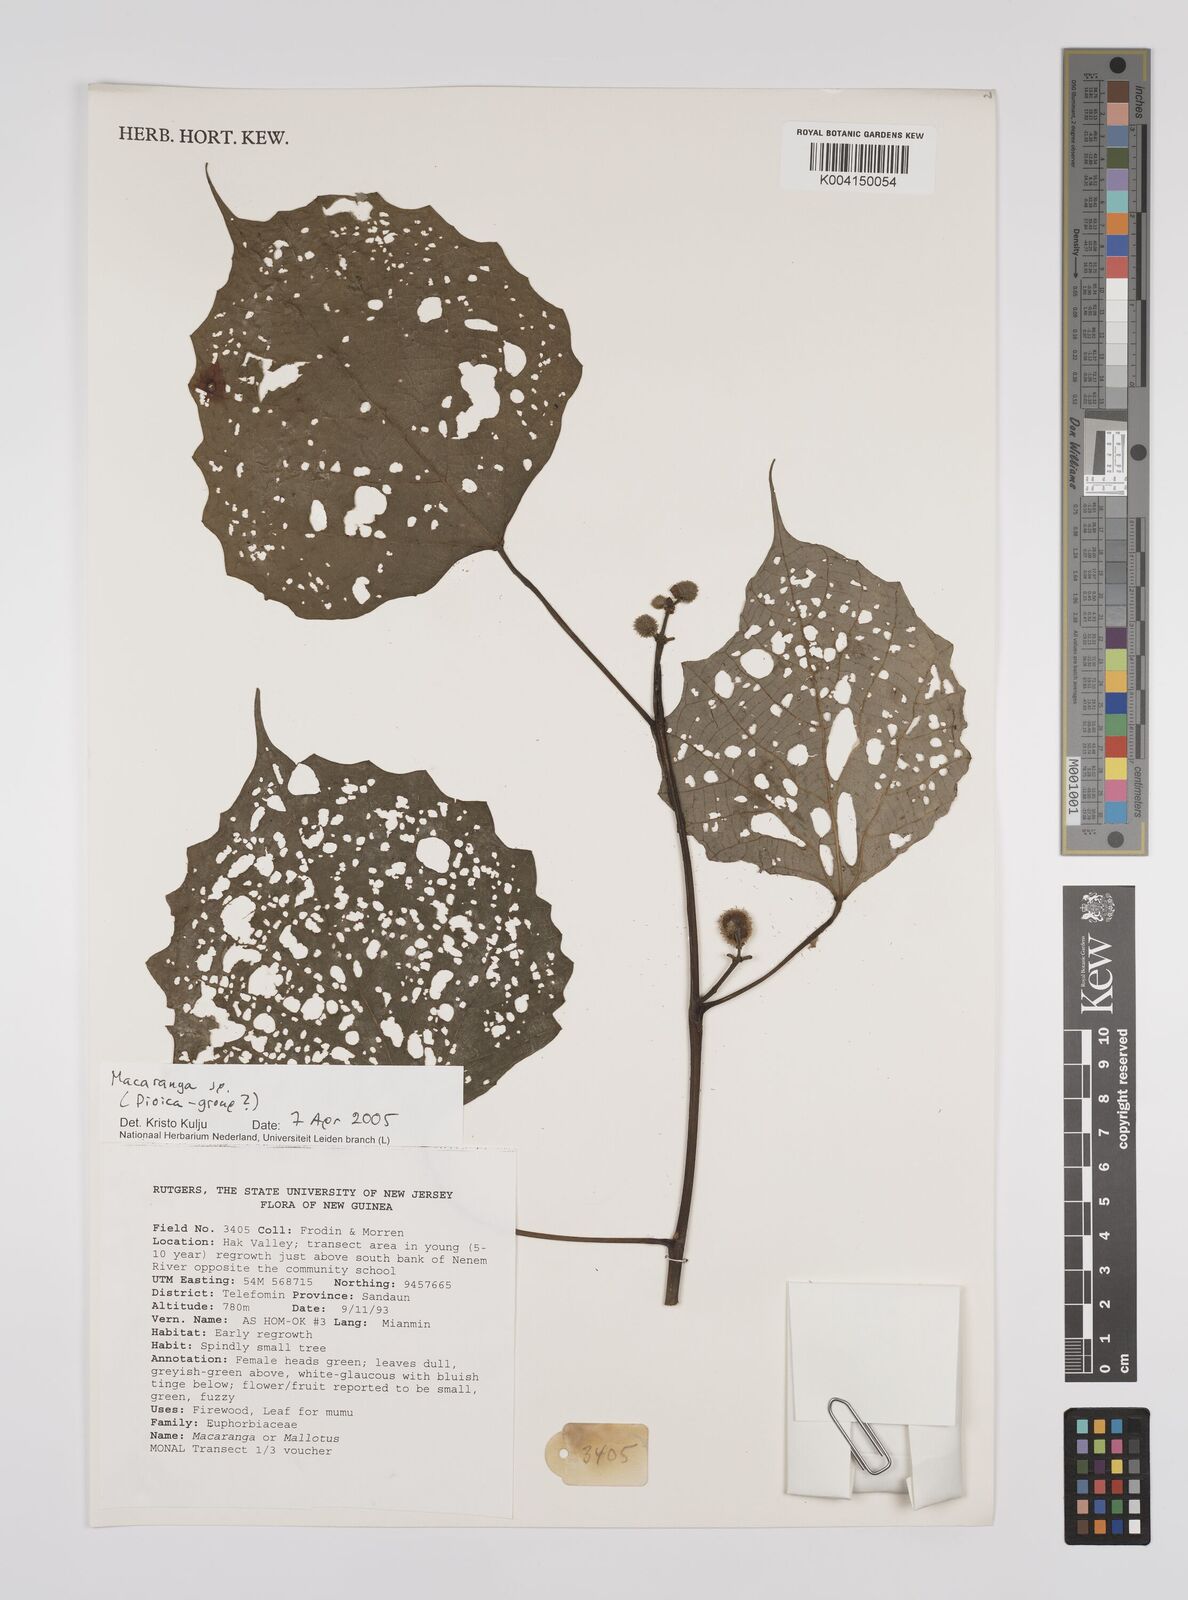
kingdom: Plantae
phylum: Tracheophyta
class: Magnoliopsida
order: Malpighiales
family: Euphorbiaceae
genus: Macaranga
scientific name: Macaranga
